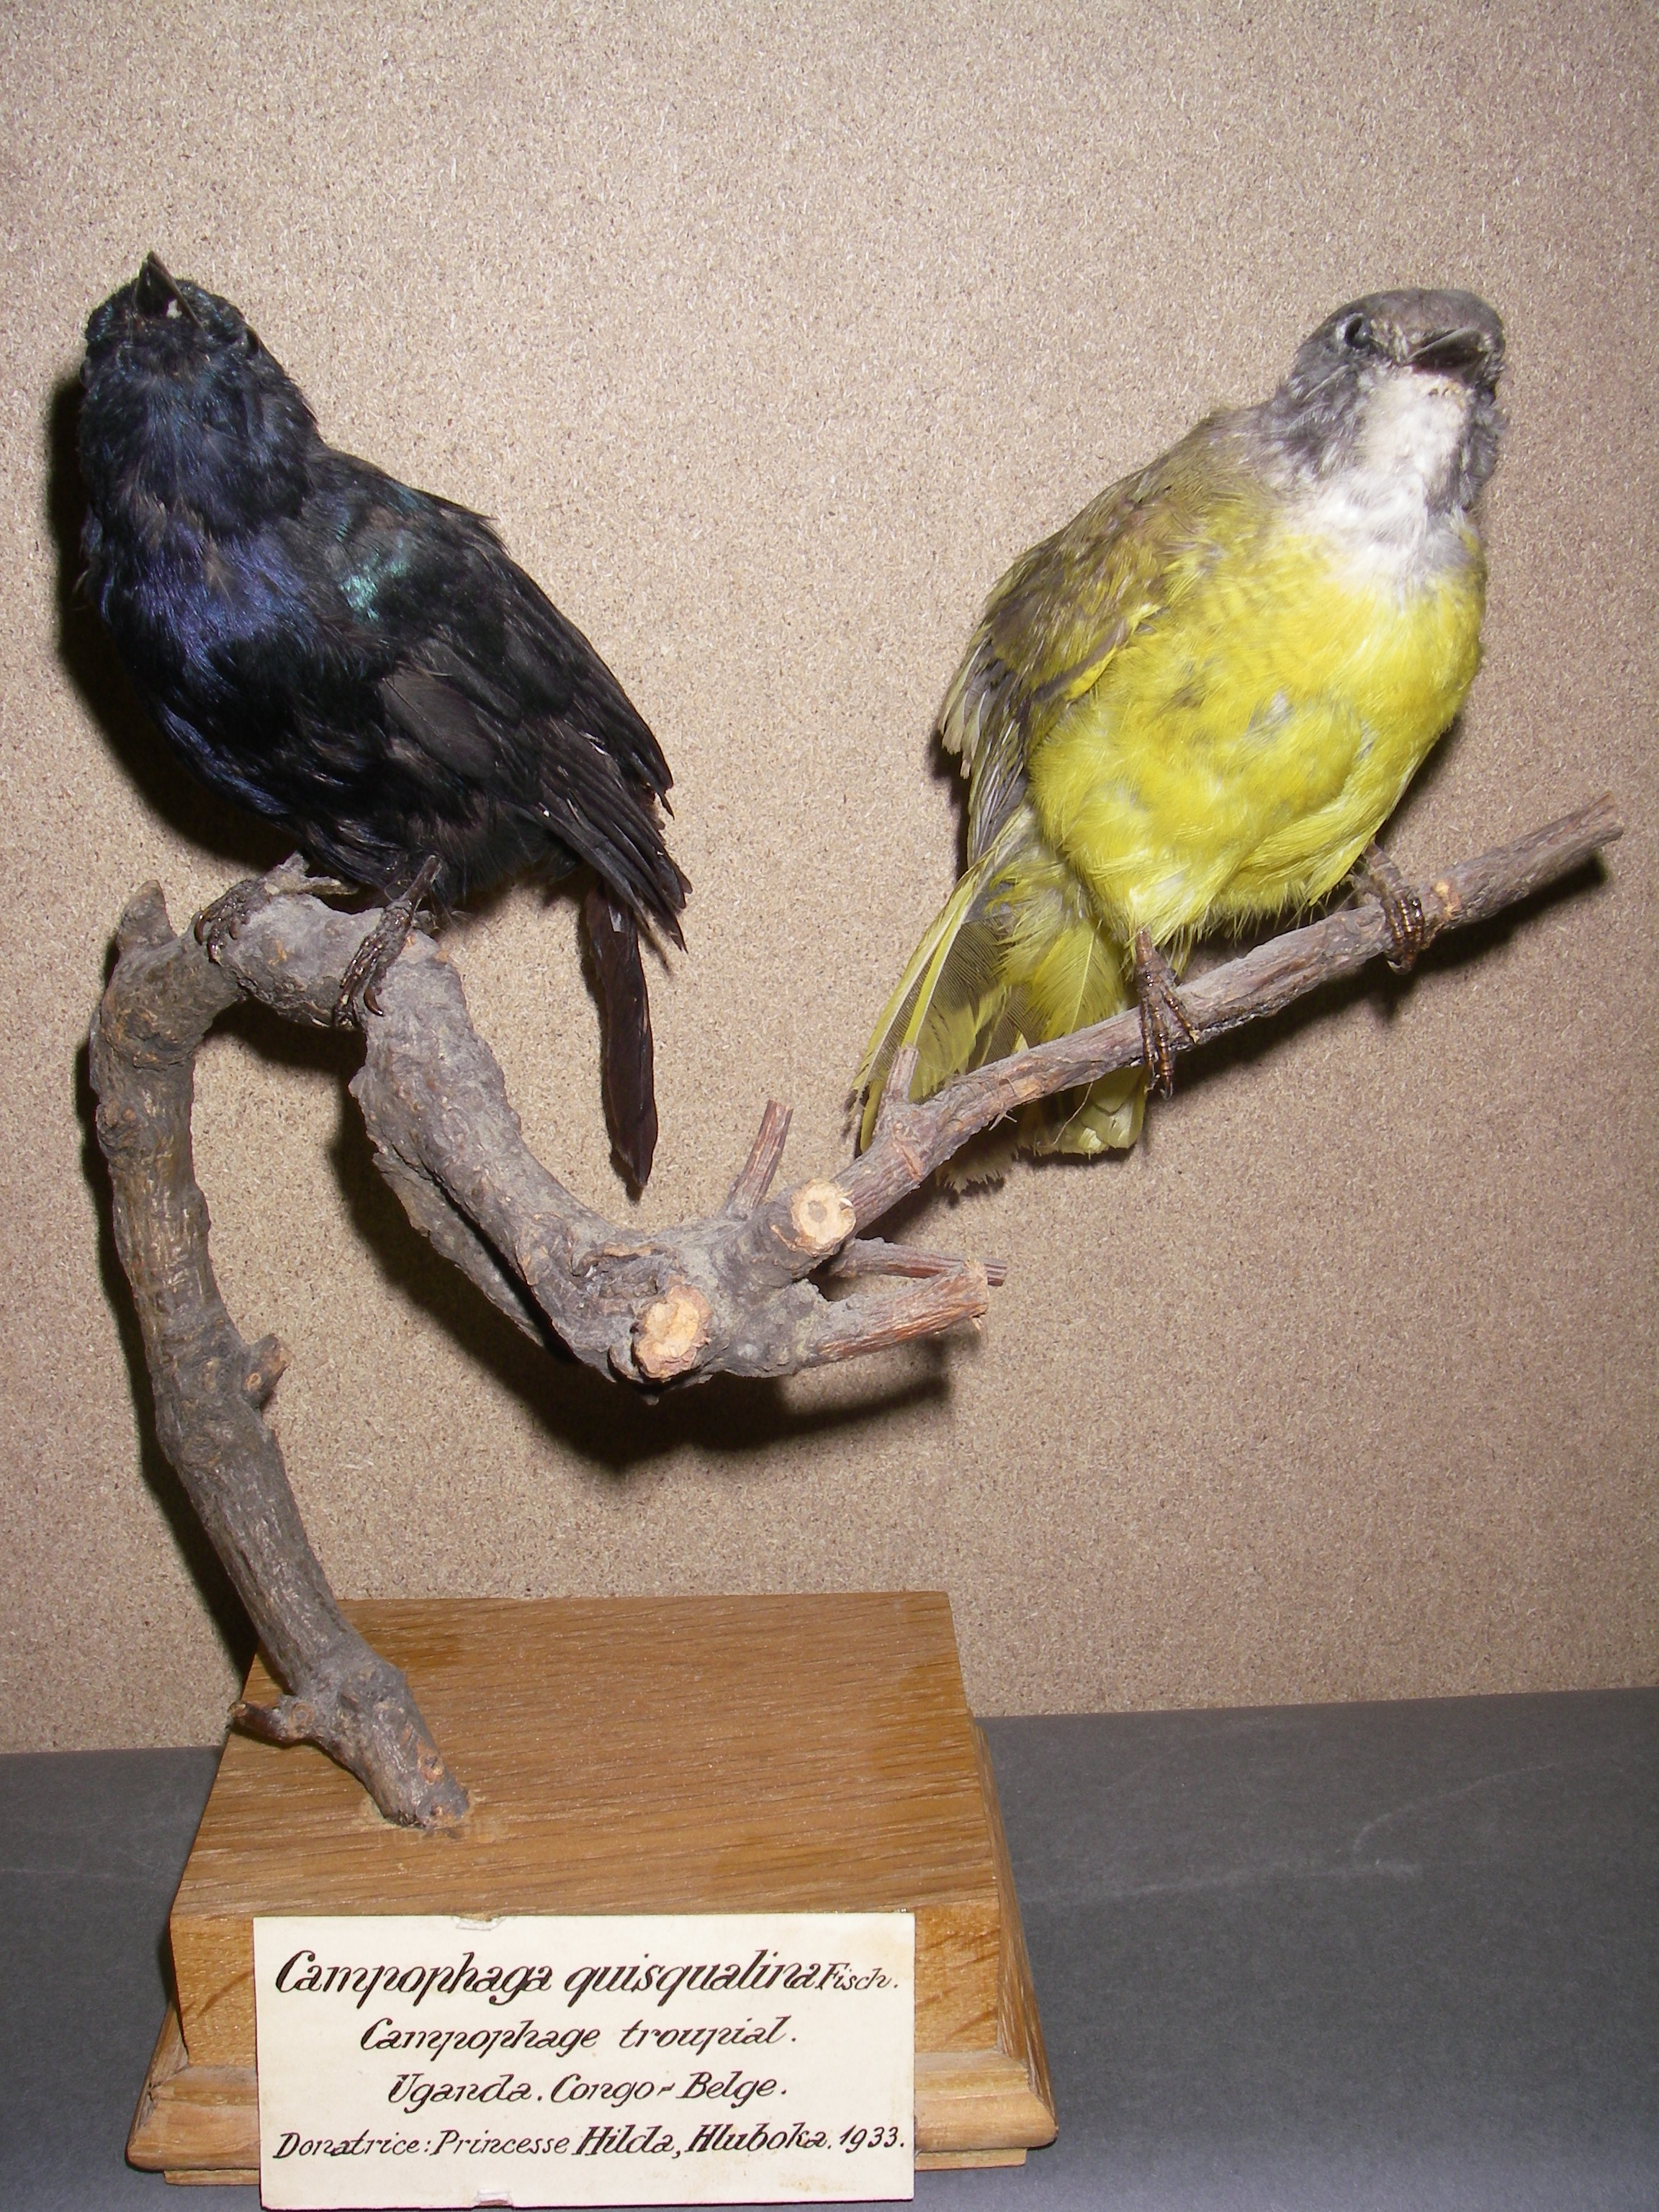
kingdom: Animalia
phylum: Chordata
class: Aves
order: Passeriformes
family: Campephagidae
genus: Campephaga
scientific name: Campephaga quiscalina
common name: Purple-throated cuckooshrike
